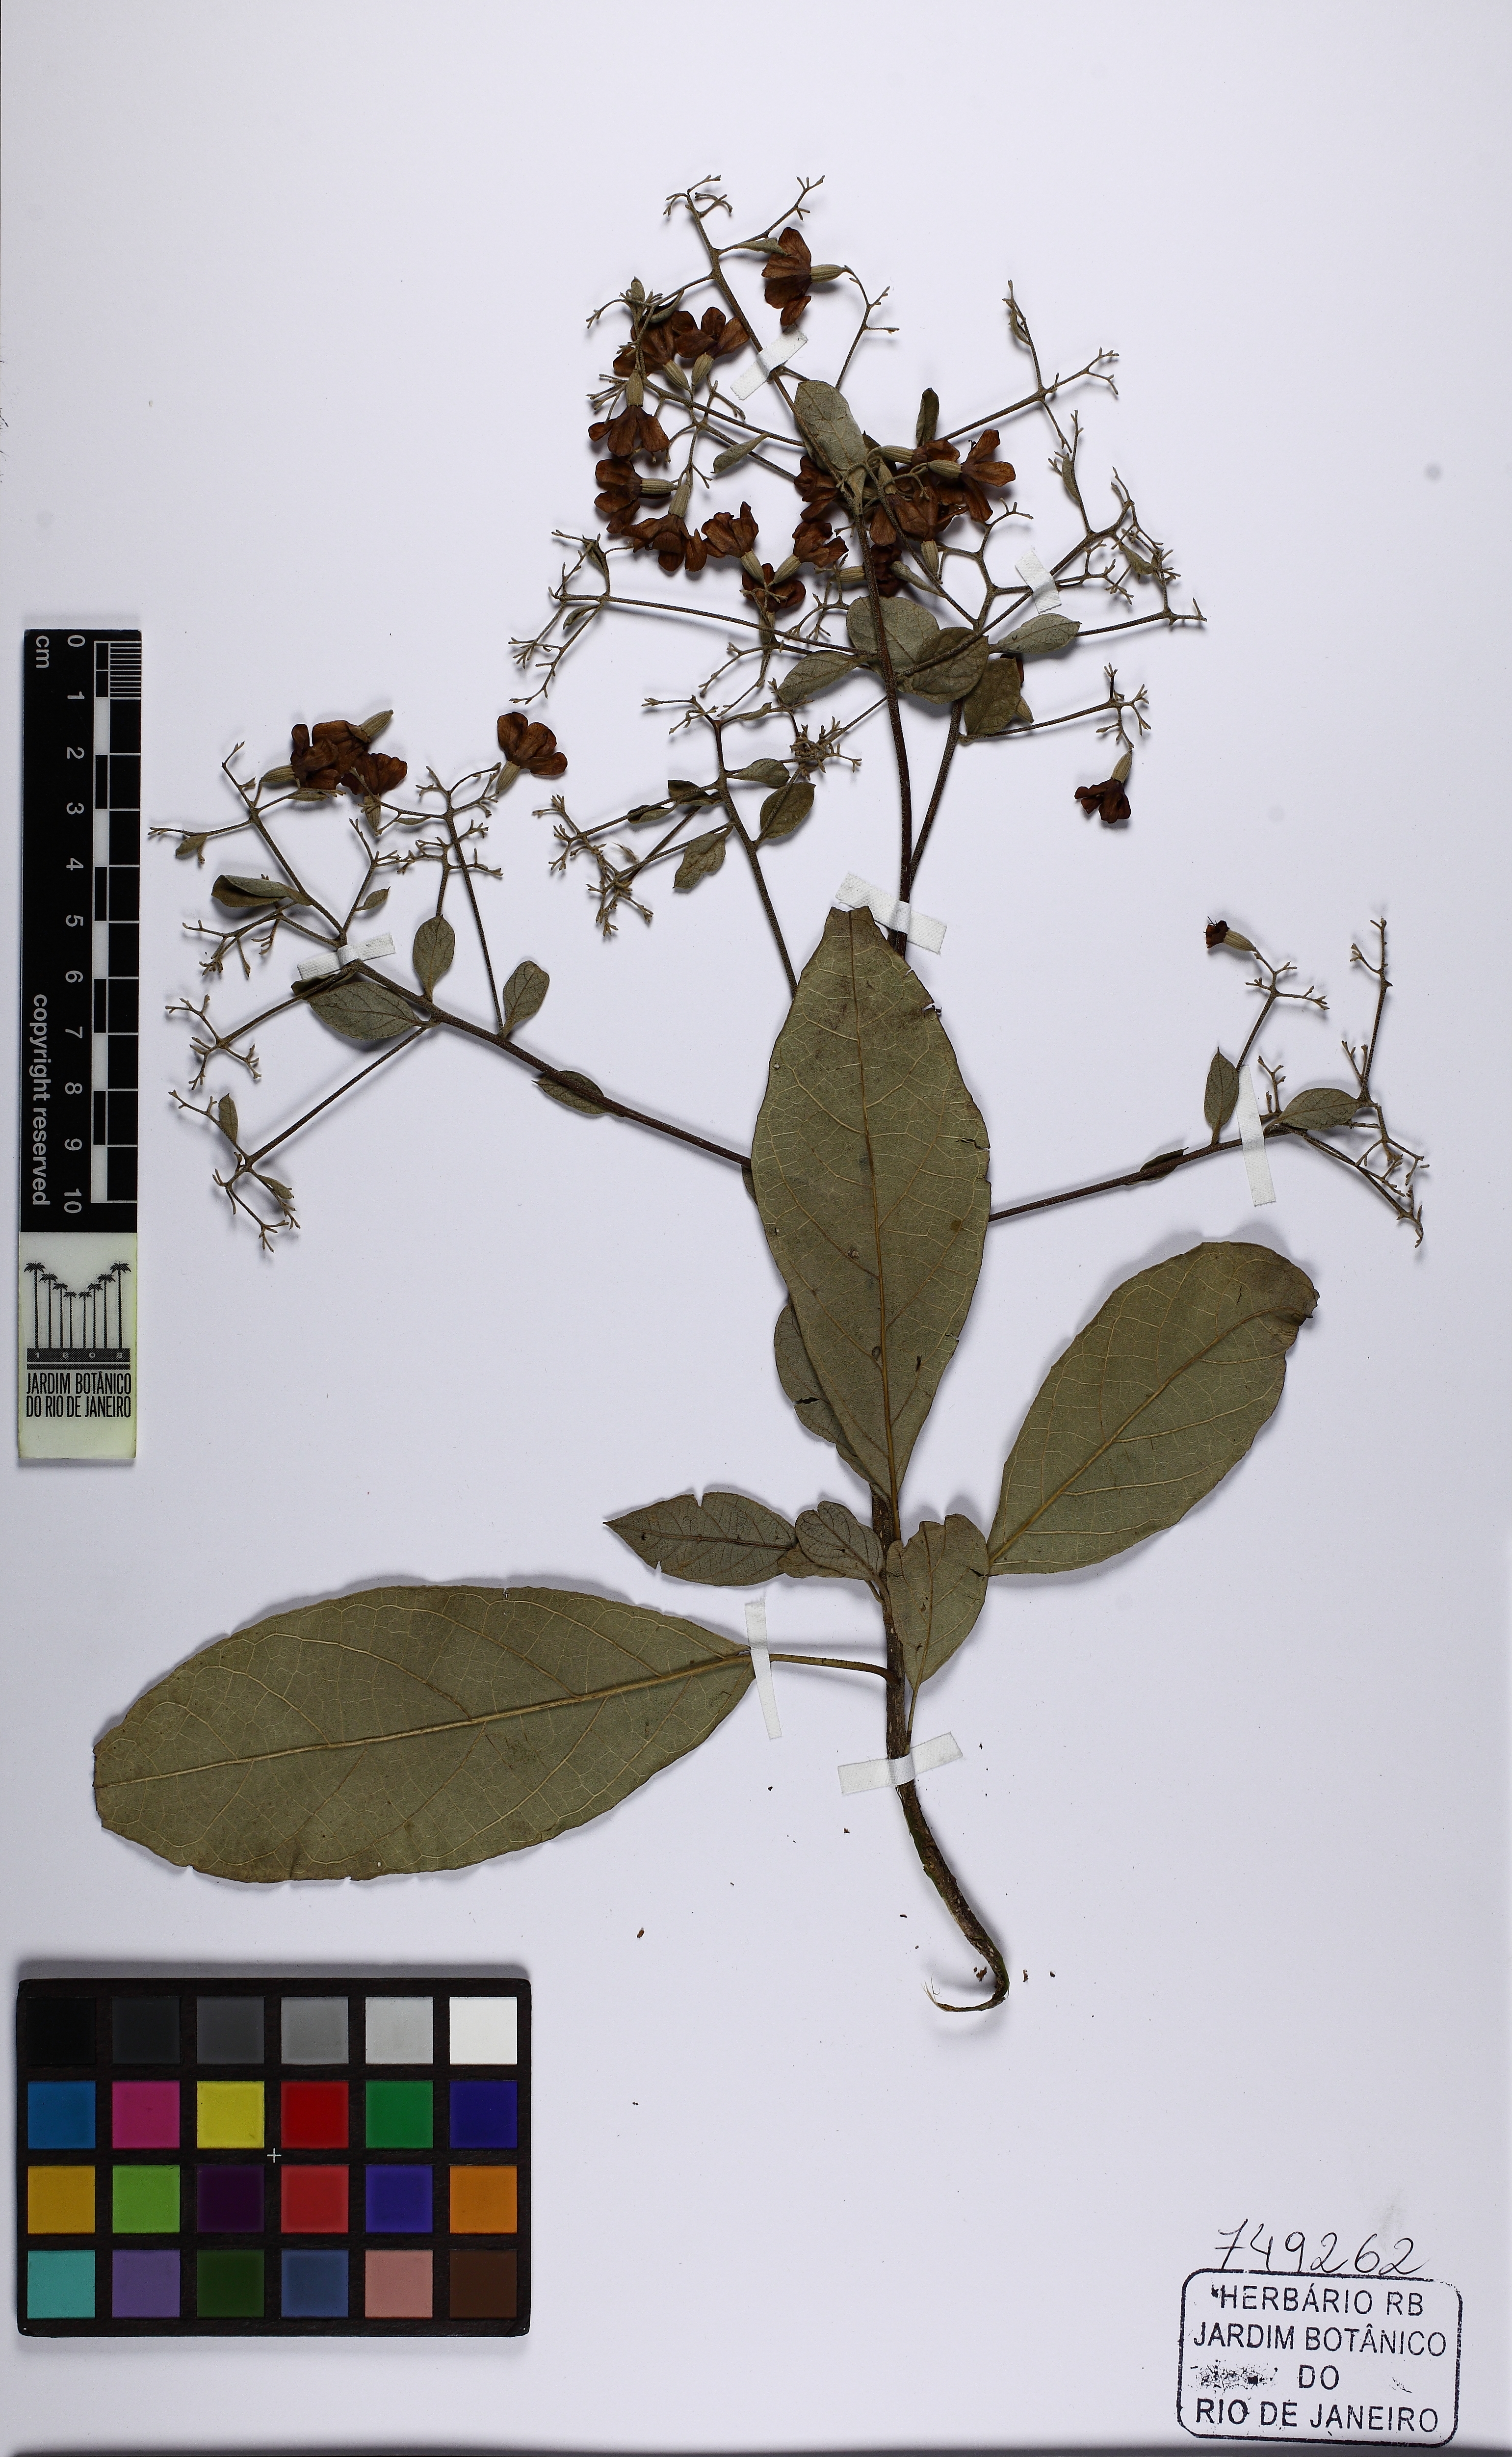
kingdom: Plantae
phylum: Tracheophyta
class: Magnoliopsida
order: Boraginales
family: Cordiaceae
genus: Cordia
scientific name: Cordia trichotoma
